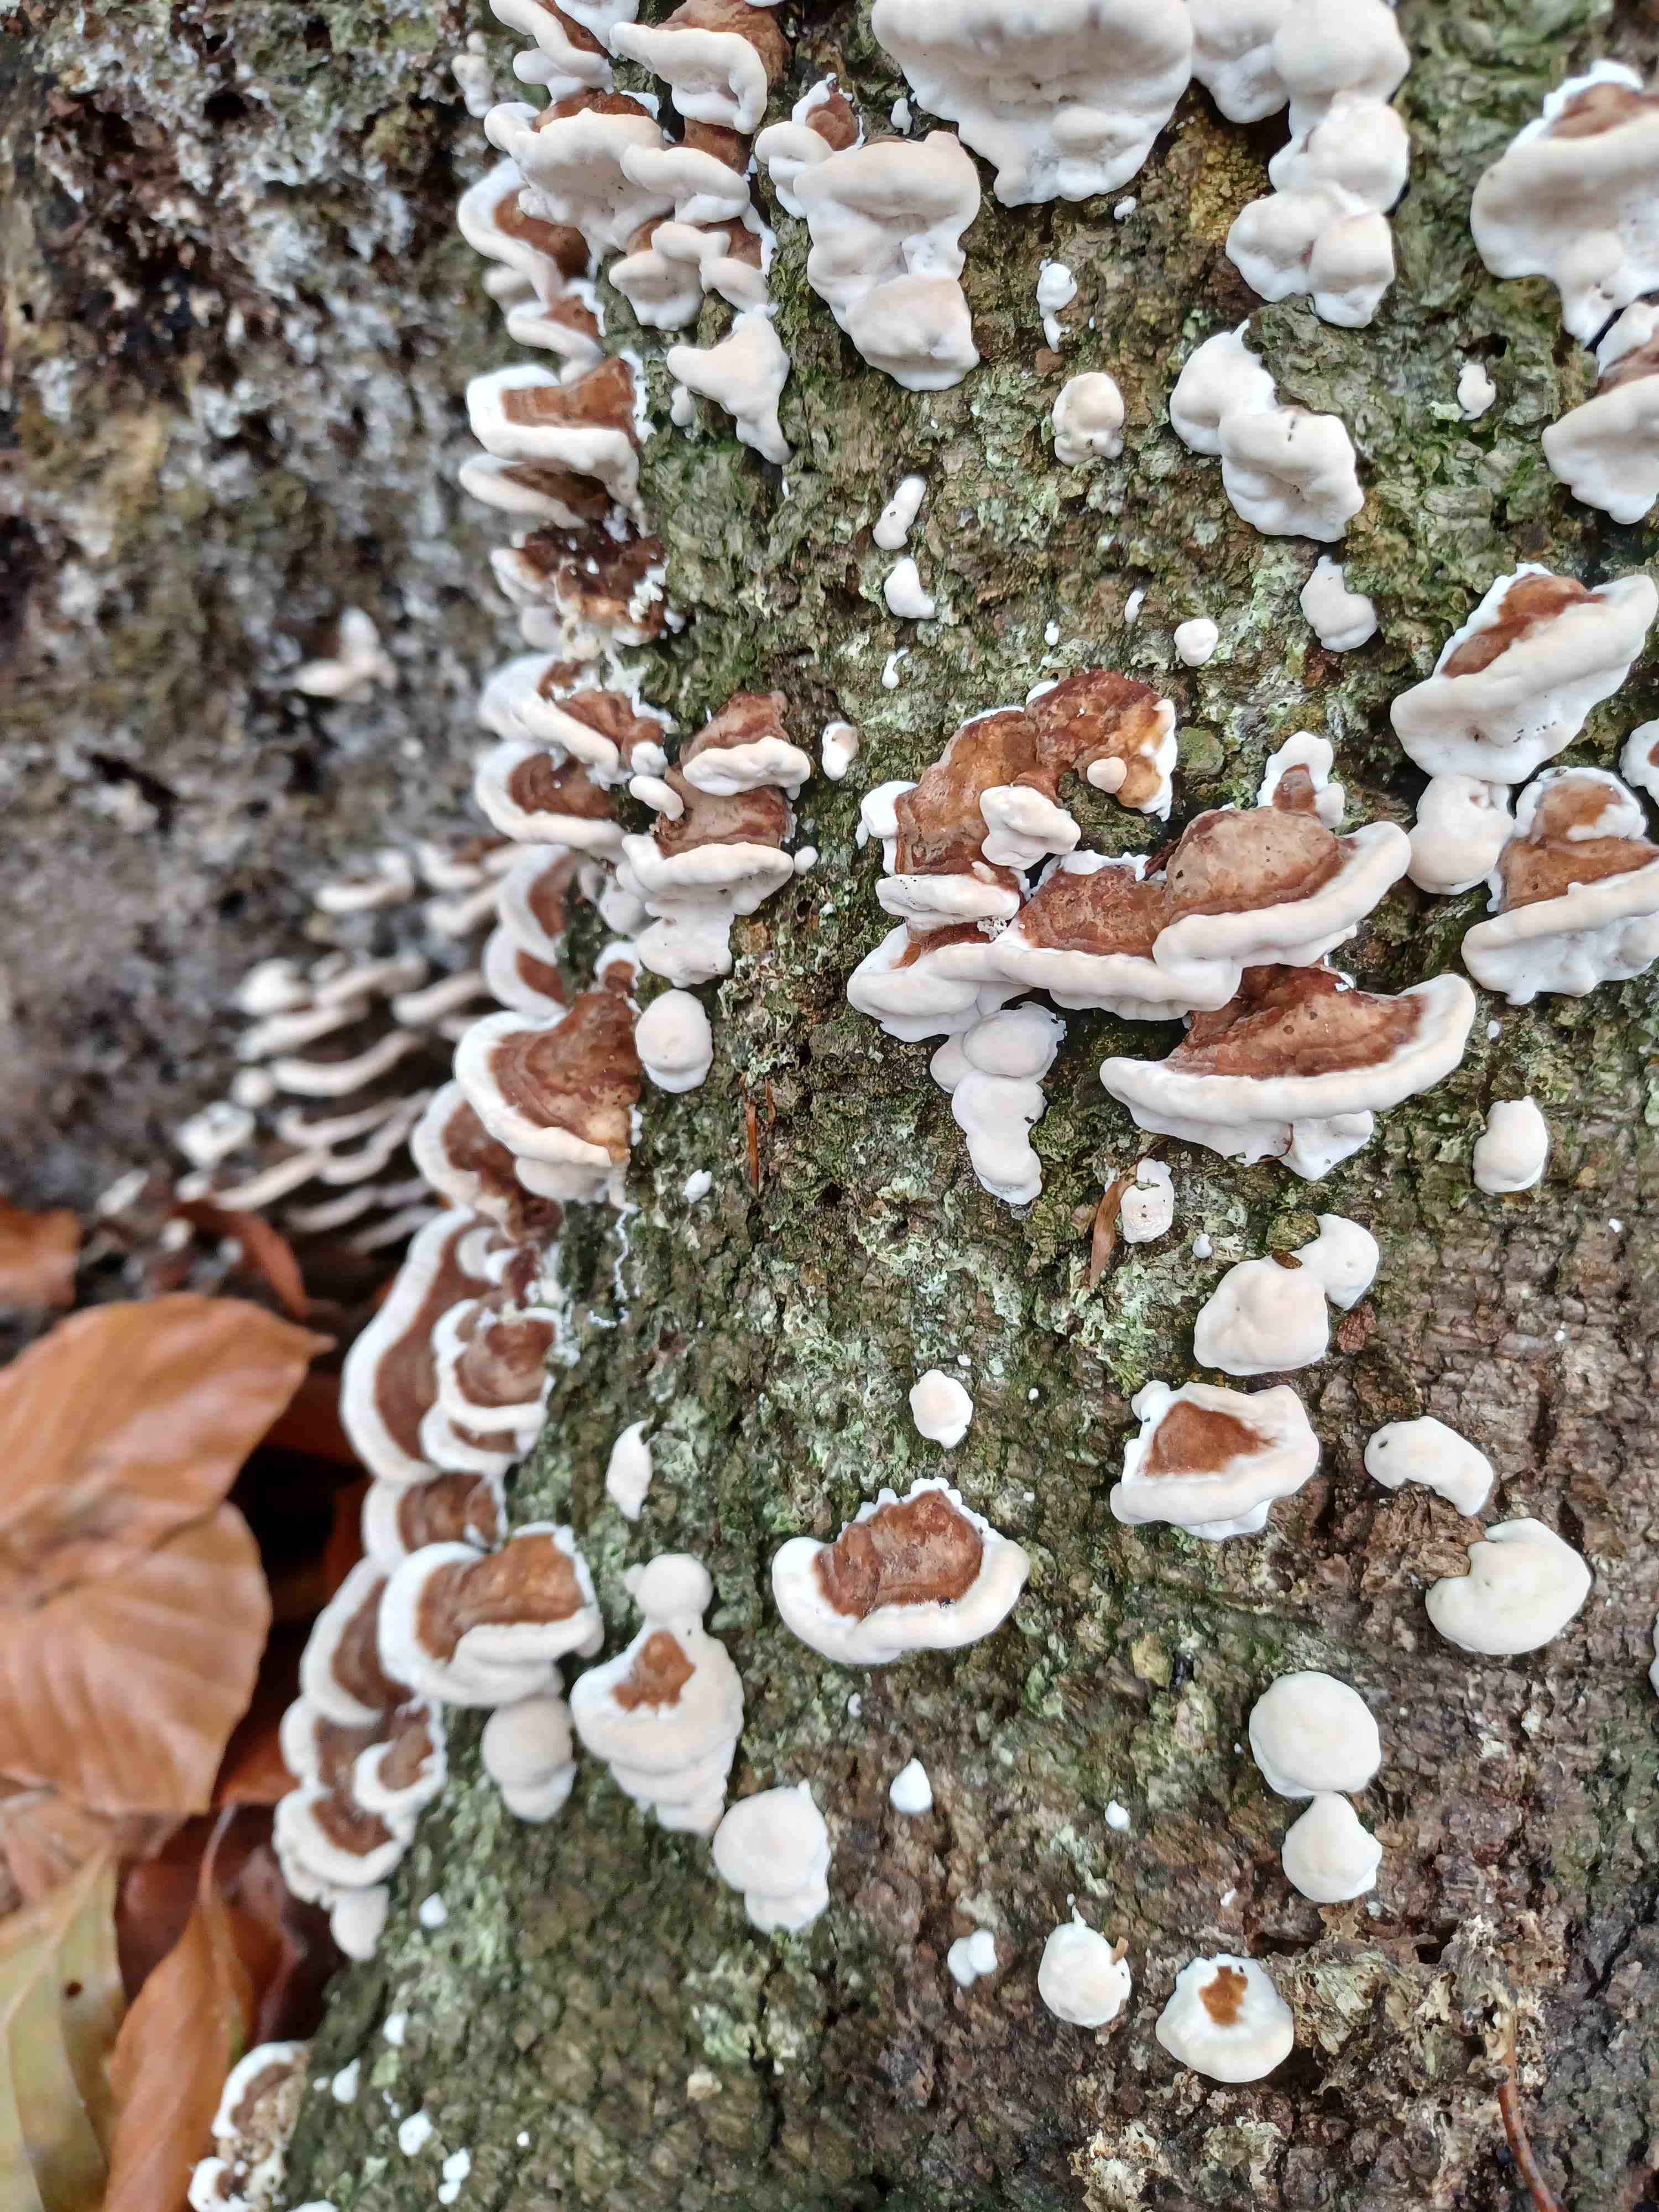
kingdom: Fungi
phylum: Basidiomycota
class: Agaricomycetes
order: Polyporales
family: Polyporaceae
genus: Trametes
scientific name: Trametes
